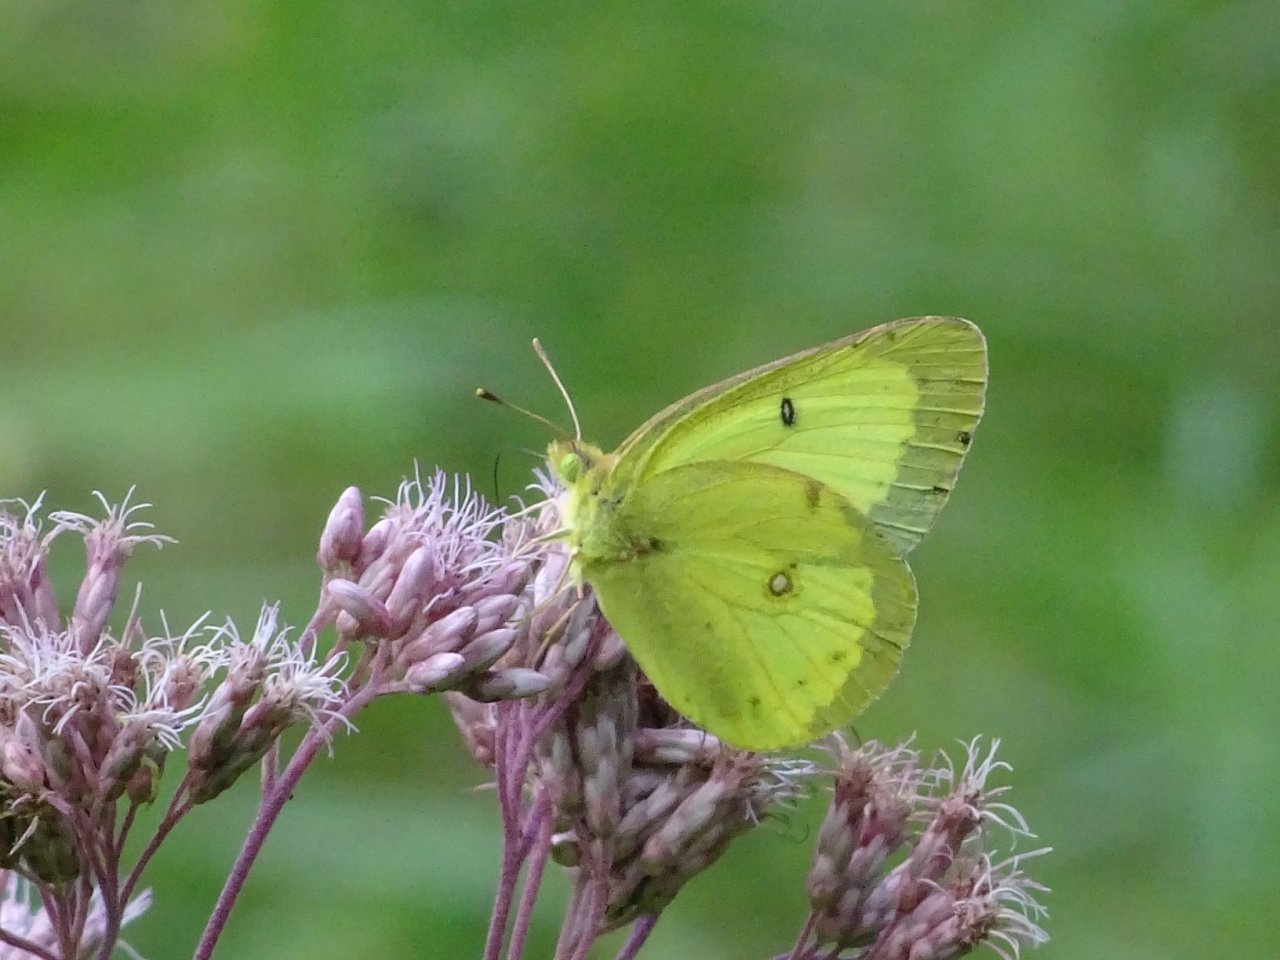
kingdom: Animalia
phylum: Arthropoda
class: Insecta
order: Lepidoptera
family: Pieridae
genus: Colias
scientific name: Colias philodice
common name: Clouded Sulphur
